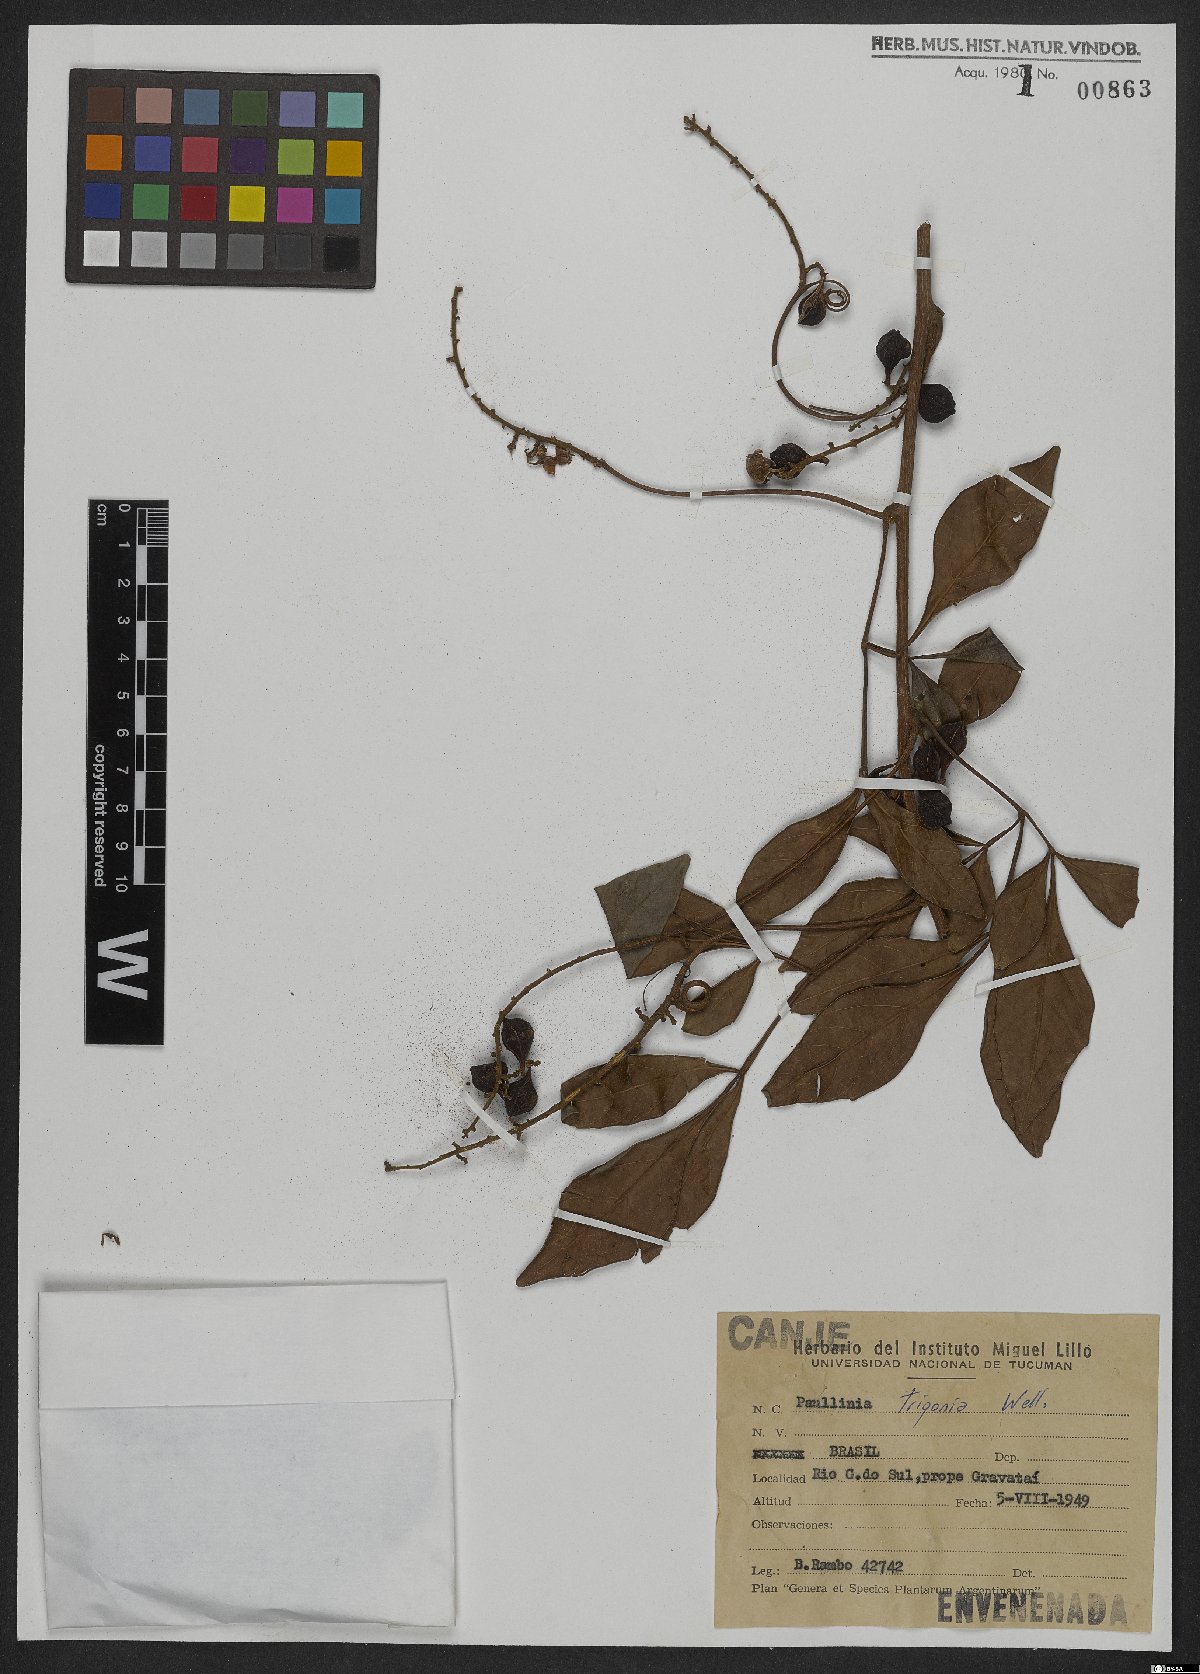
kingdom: Plantae
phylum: Tracheophyta
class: Magnoliopsida
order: Sapindales
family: Sapindaceae
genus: Paullinia
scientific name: Paullinia trigonia
